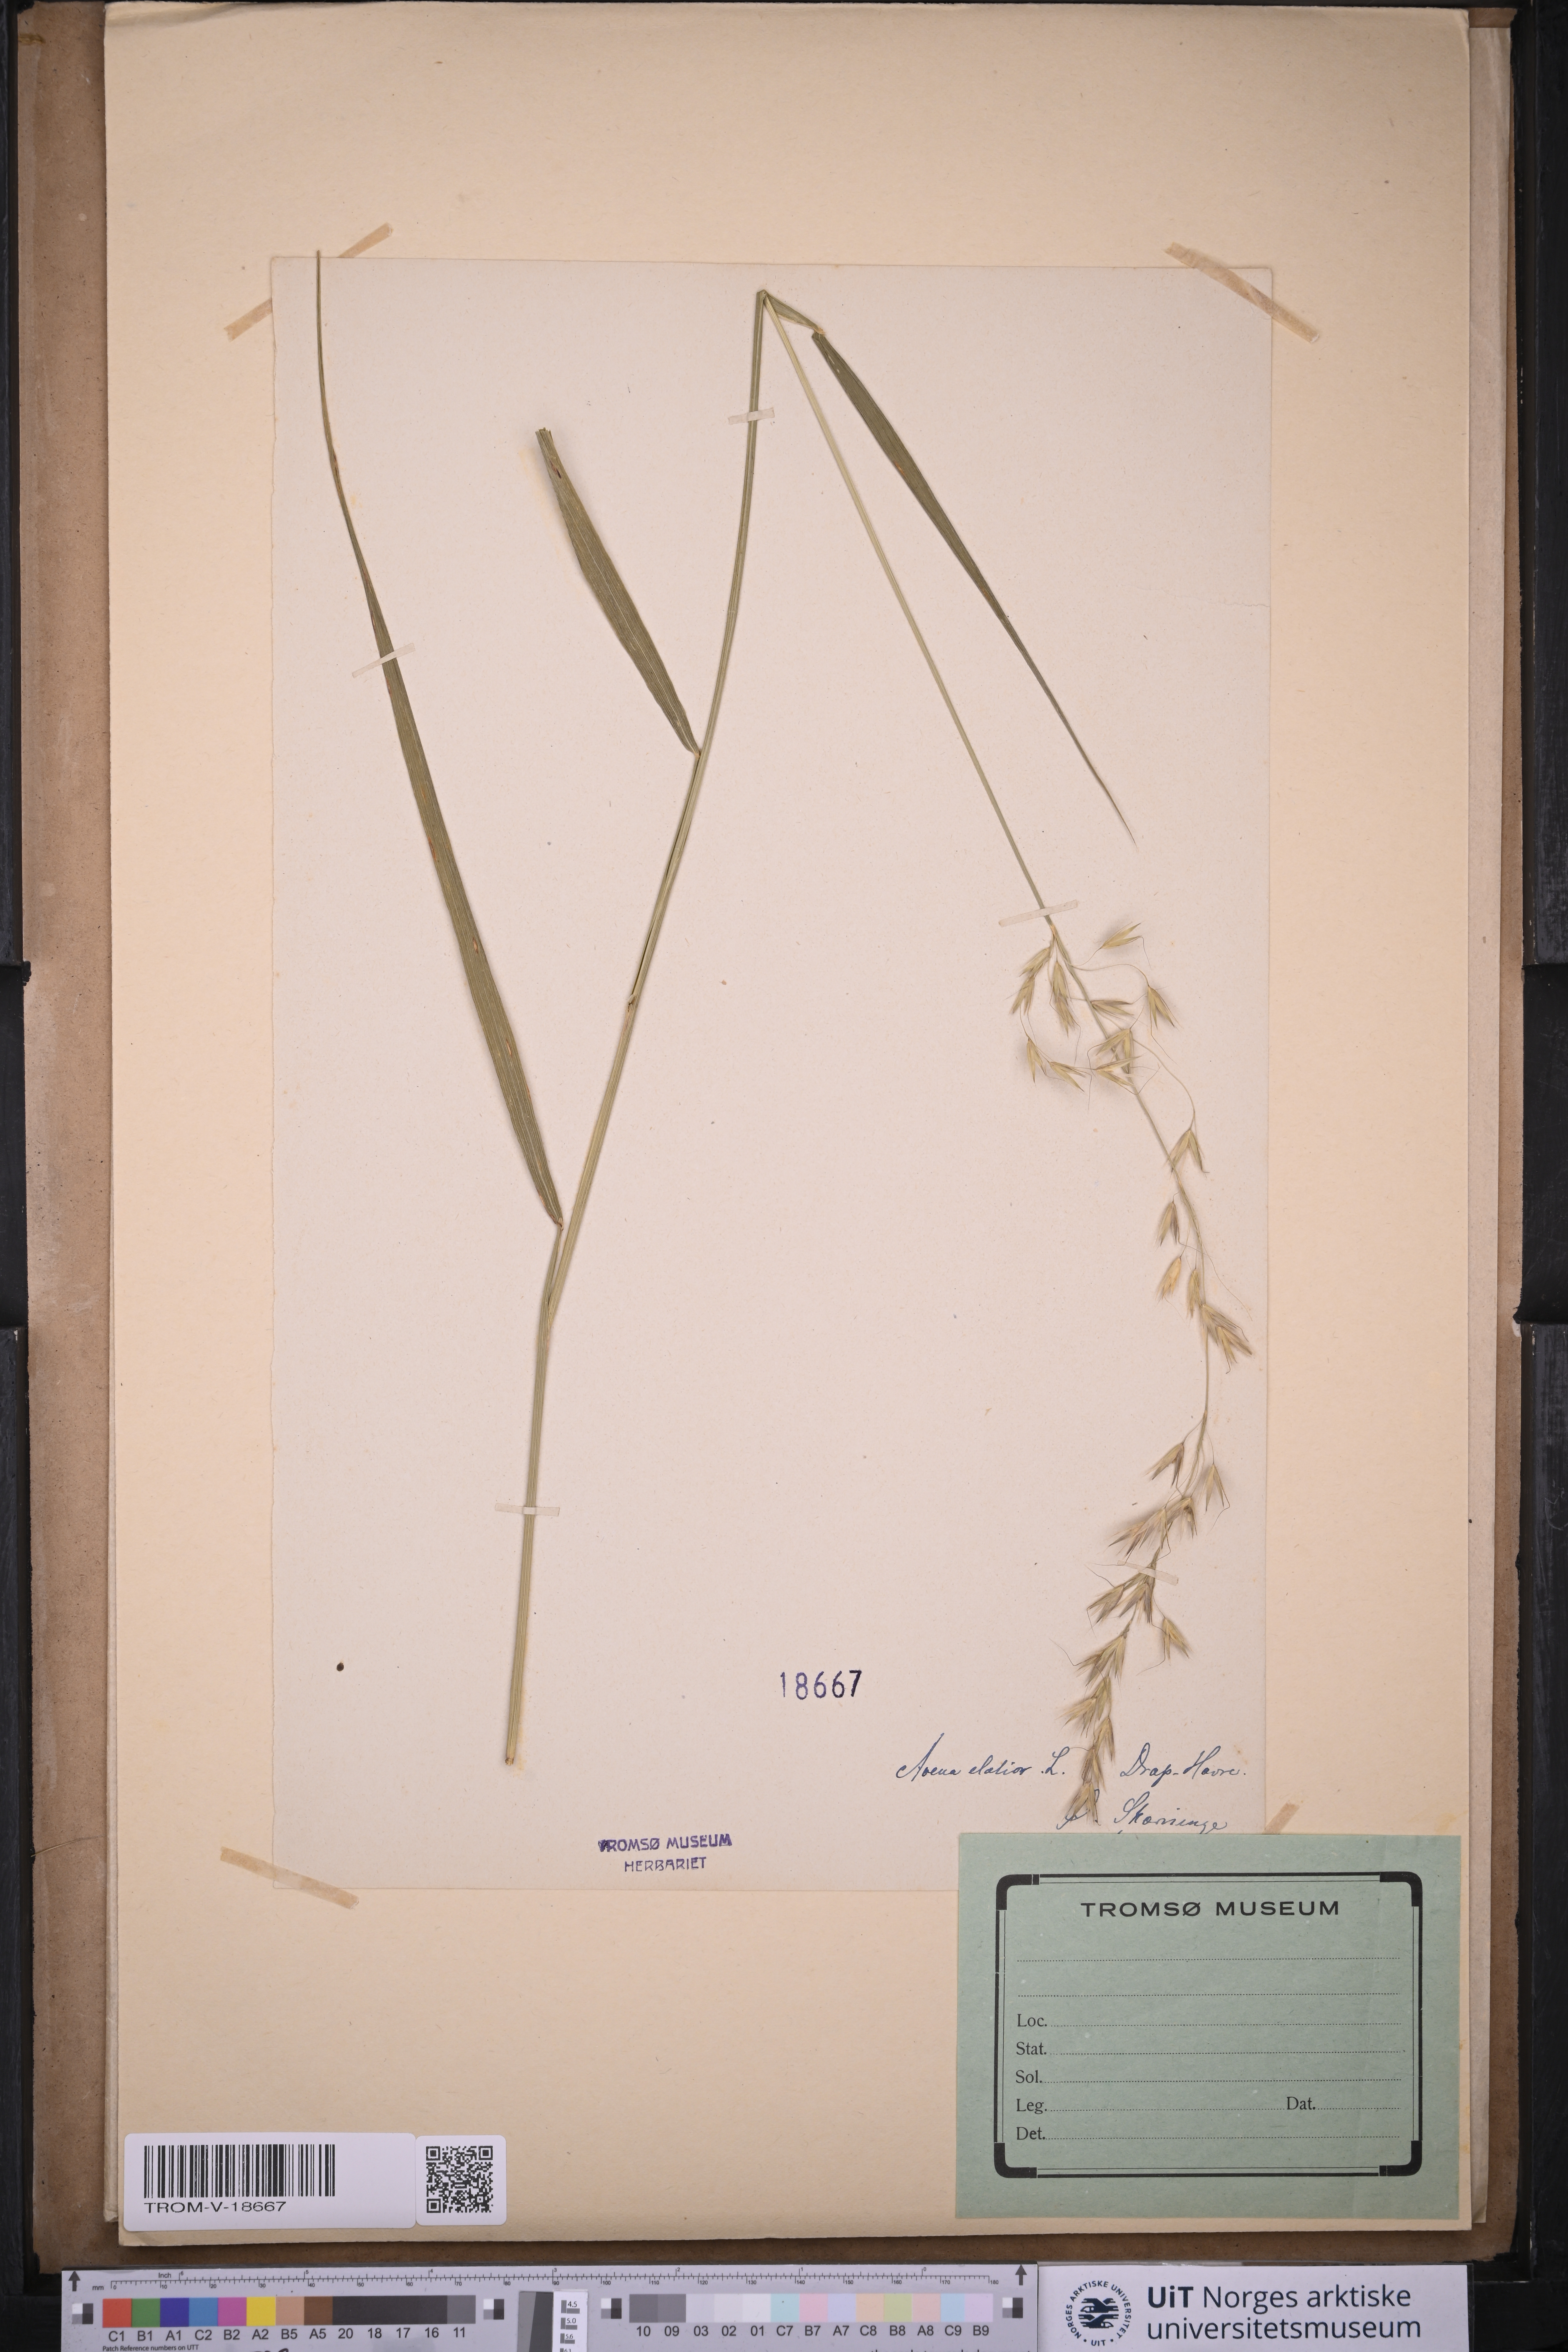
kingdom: Plantae
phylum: Tracheophyta
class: Liliopsida
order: Poales
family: Poaceae
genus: Arrhenatherum
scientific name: Arrhenatherum elatius
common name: Tall oatgrass
